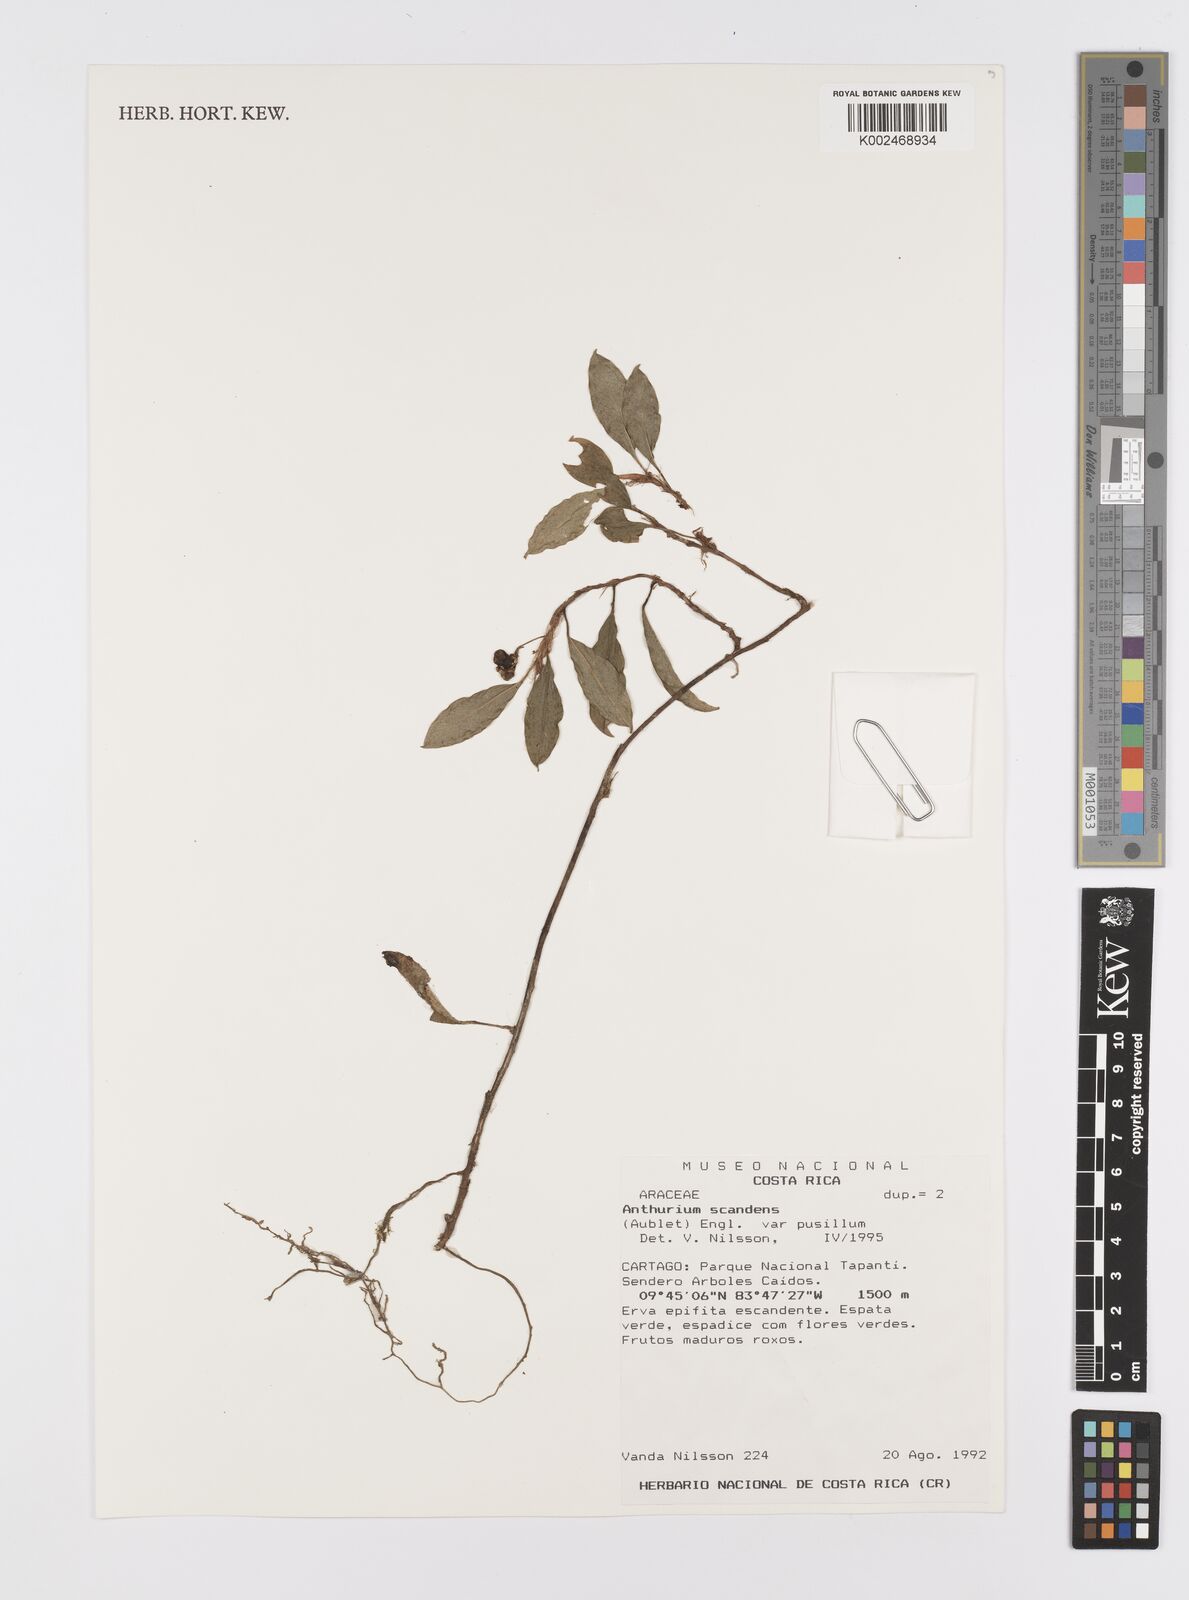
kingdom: Plantae
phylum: Tracheophyta
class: Liliopsida
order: Alismatales
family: Araceae
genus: Anthurium
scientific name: Anthurium scandens
